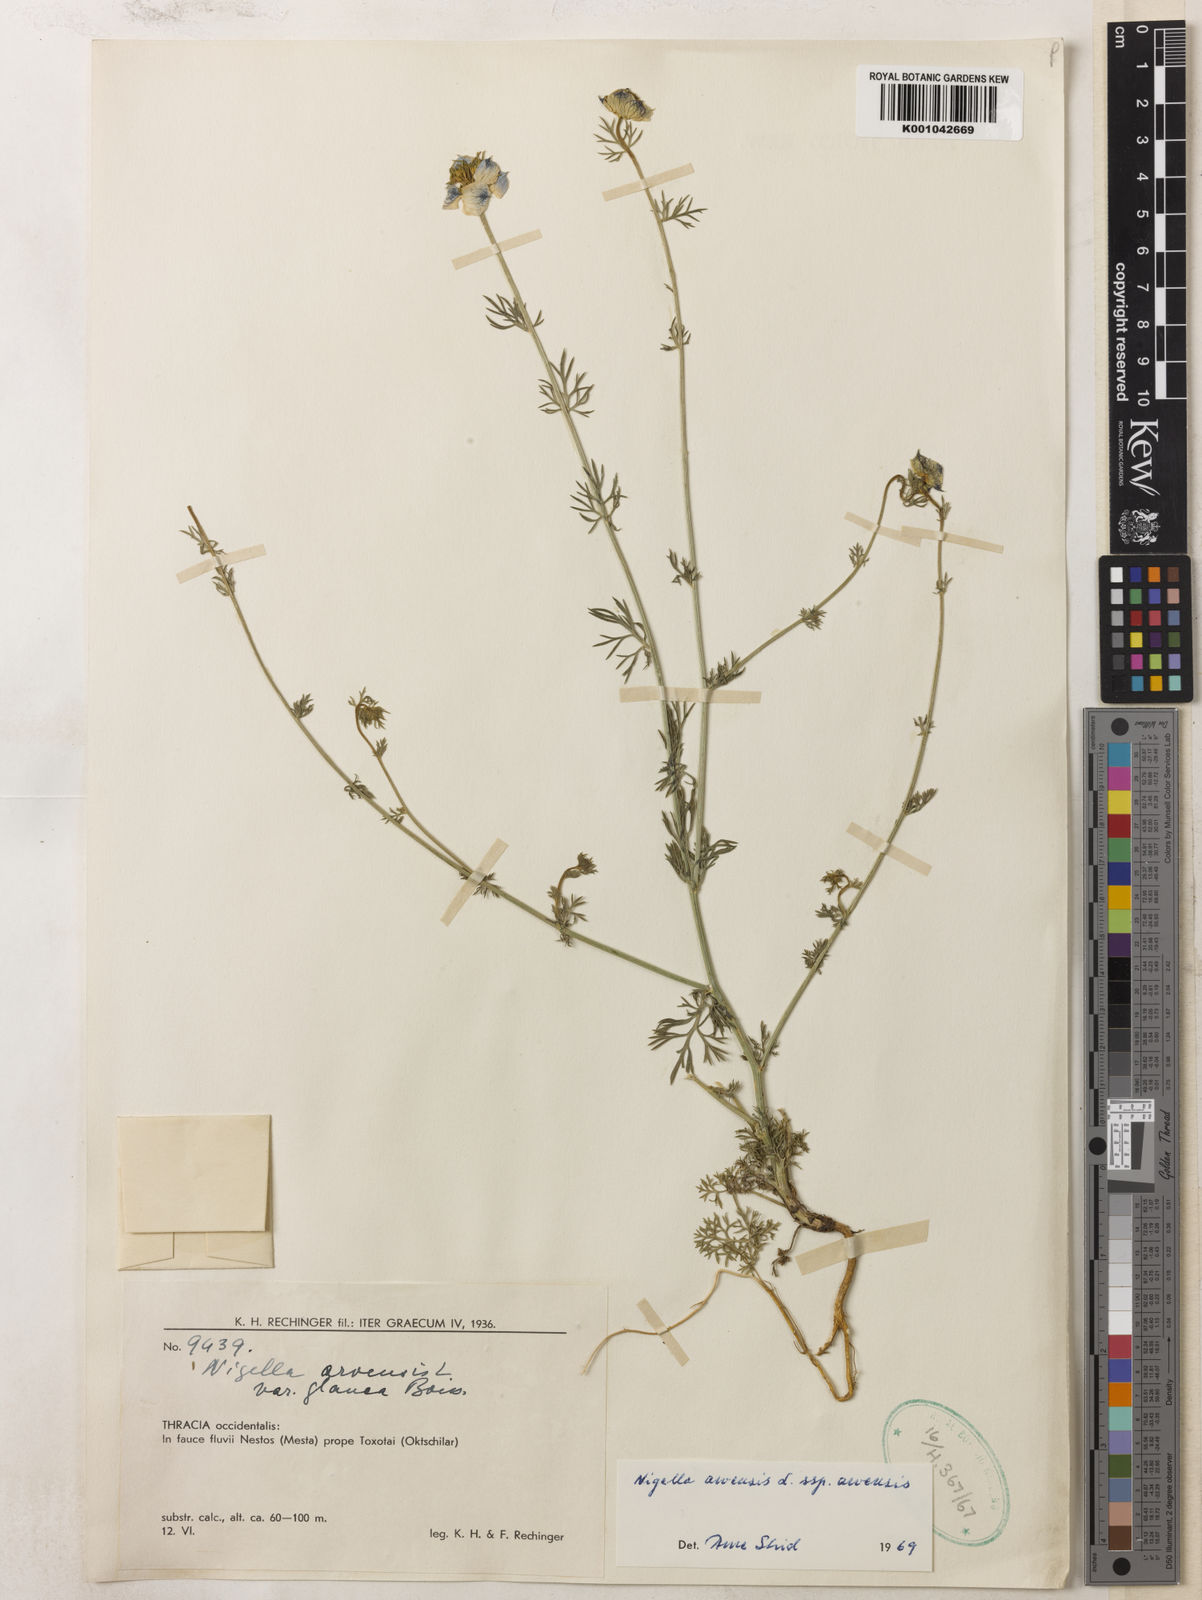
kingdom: Plantae
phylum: Tracheophyta
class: Magnoliopsida
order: Ranunculales
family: Ranunculaceae
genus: Nigella
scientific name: Nigella arvensis
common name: Wild fennel-flower
